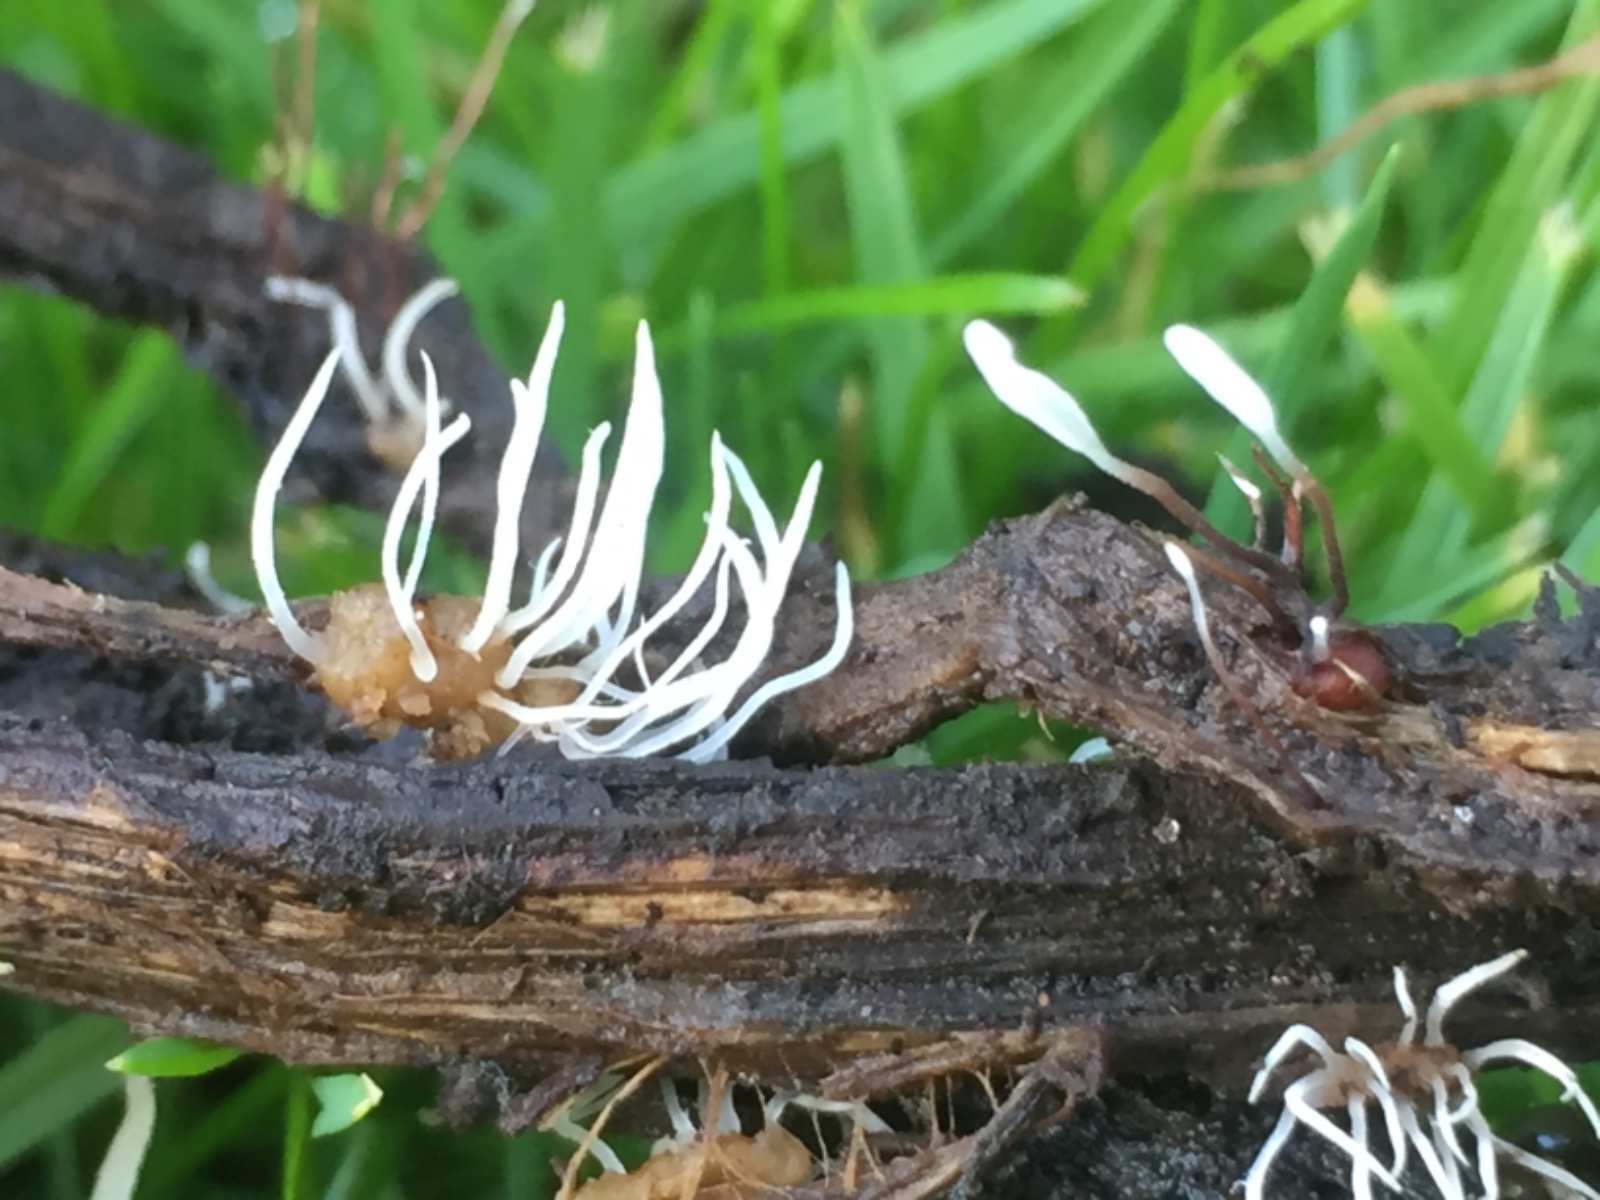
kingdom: Fungi
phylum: Basidiomycota
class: Agaricomycetes
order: Agaricales
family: Typhulaceae
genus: Typhula
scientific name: Typhula erythropus
